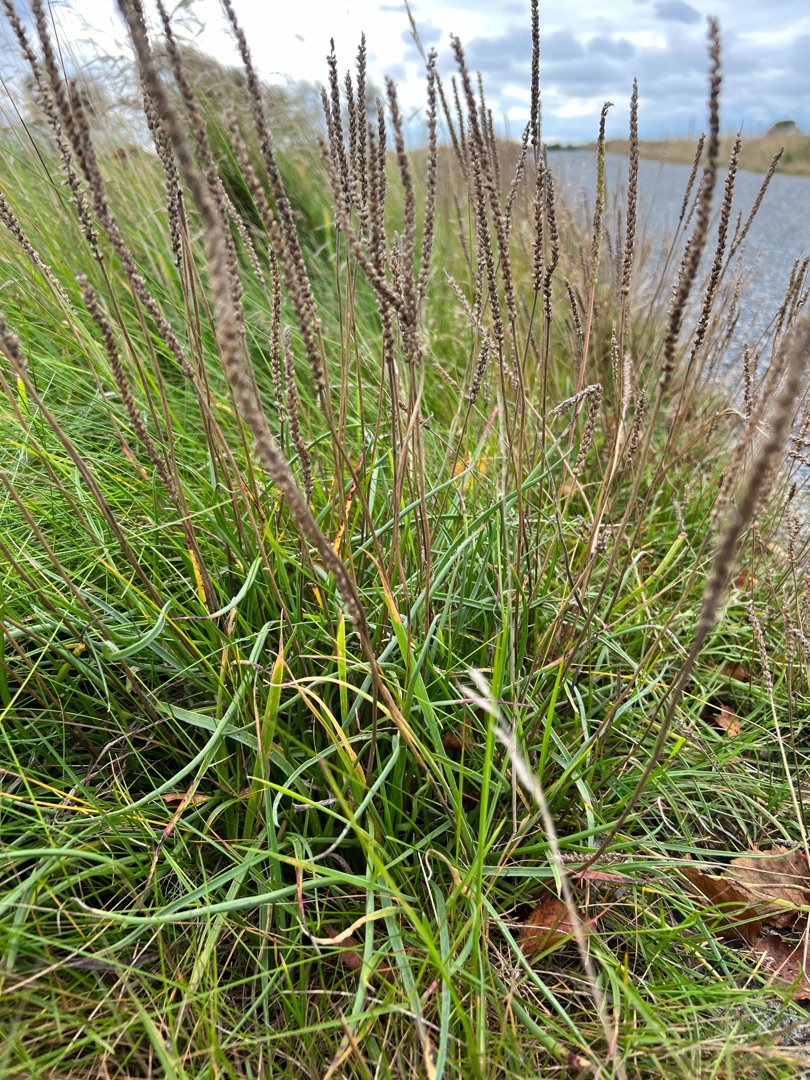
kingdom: Plantae
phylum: Tracheophyta
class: Magnoliopsida
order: Lamiales
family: Plantaginaceae
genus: Plantago
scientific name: Plantago maritima
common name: Strand-vejbred
